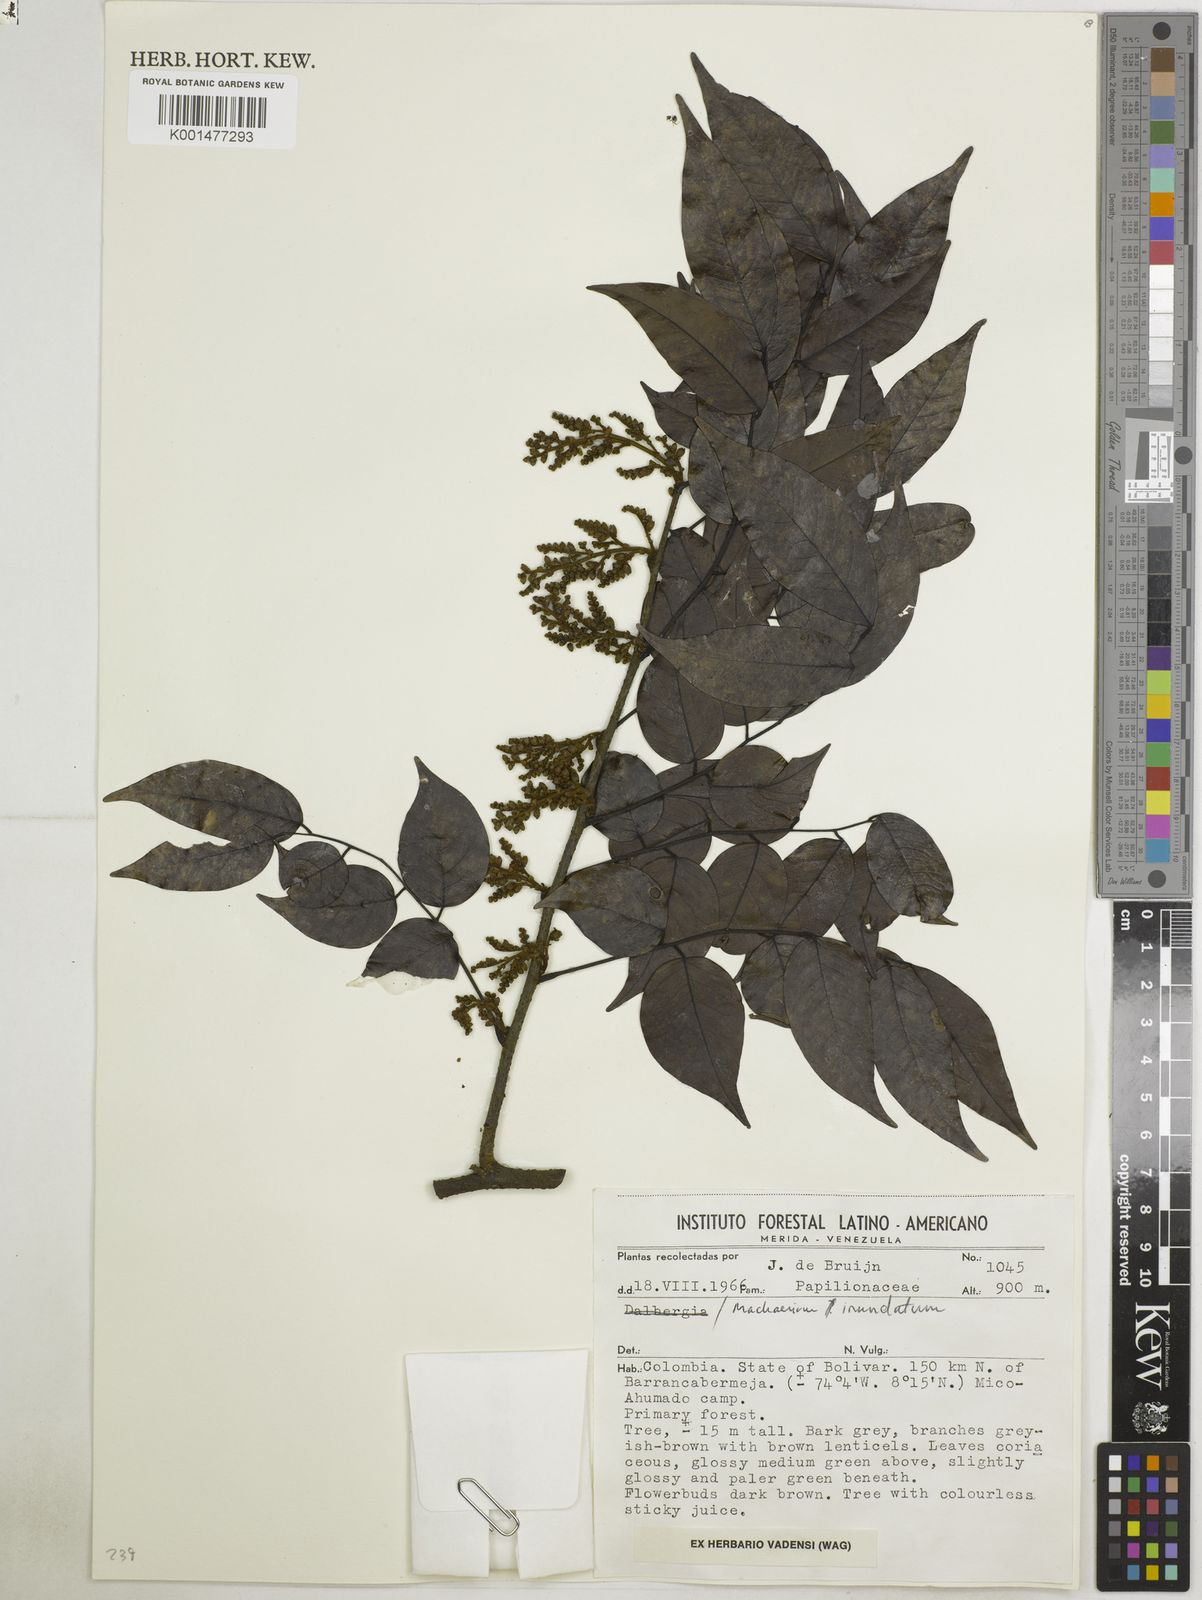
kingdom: Plantae
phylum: Tracheophyta
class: Magnoliopsida
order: Fabales
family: Fabaceae
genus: Machaerium
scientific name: Machaerium inundatum
